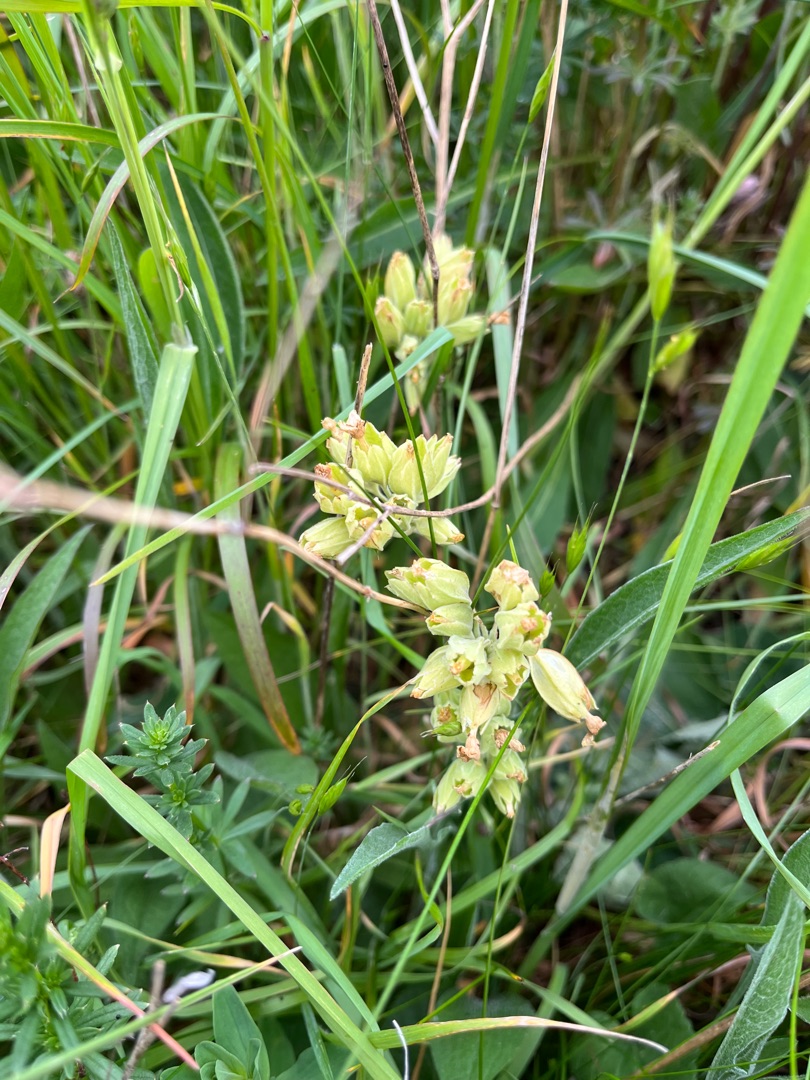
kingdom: Plantae
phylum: Tracheophyta
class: Magnoliopsida
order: Ericales
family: Primulaceae
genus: Primula
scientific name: Primula veris
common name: Hulkravet kodriver
